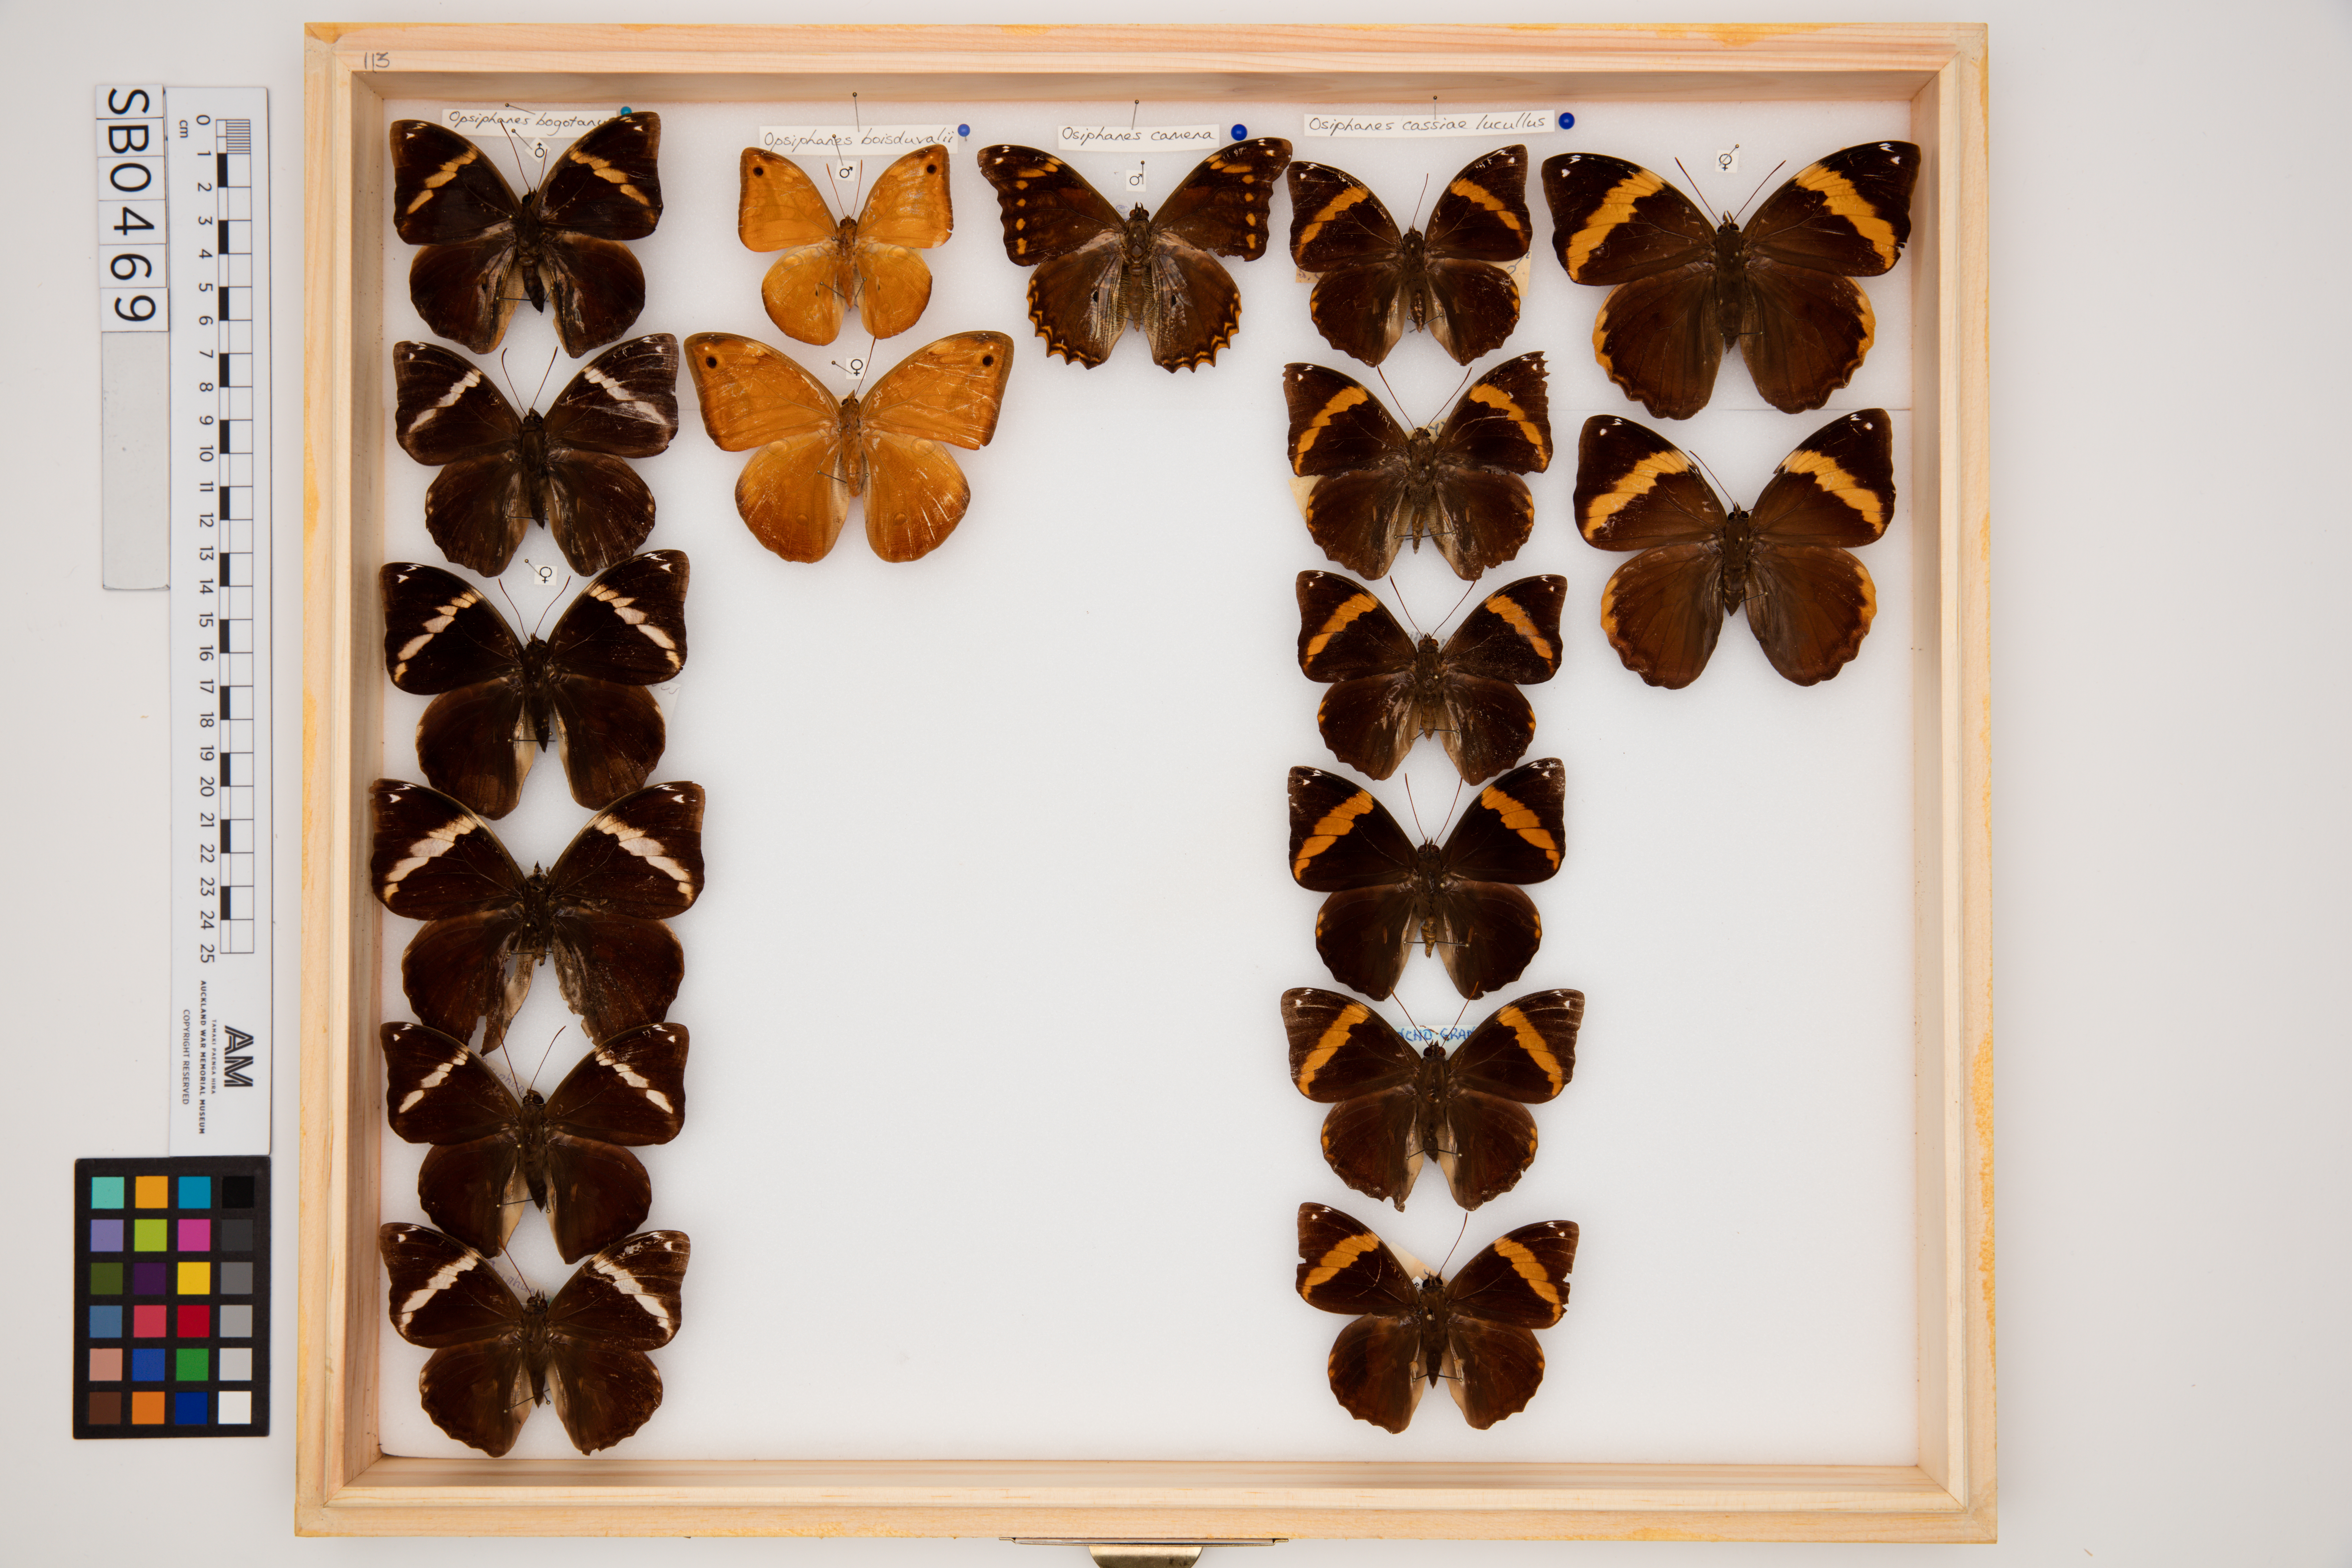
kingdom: Animalia
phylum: Arthropoda
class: Insecta
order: Lepidoptera
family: Nymphalidae
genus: Opsiphanes
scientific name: Opsiphanes bogotanus
